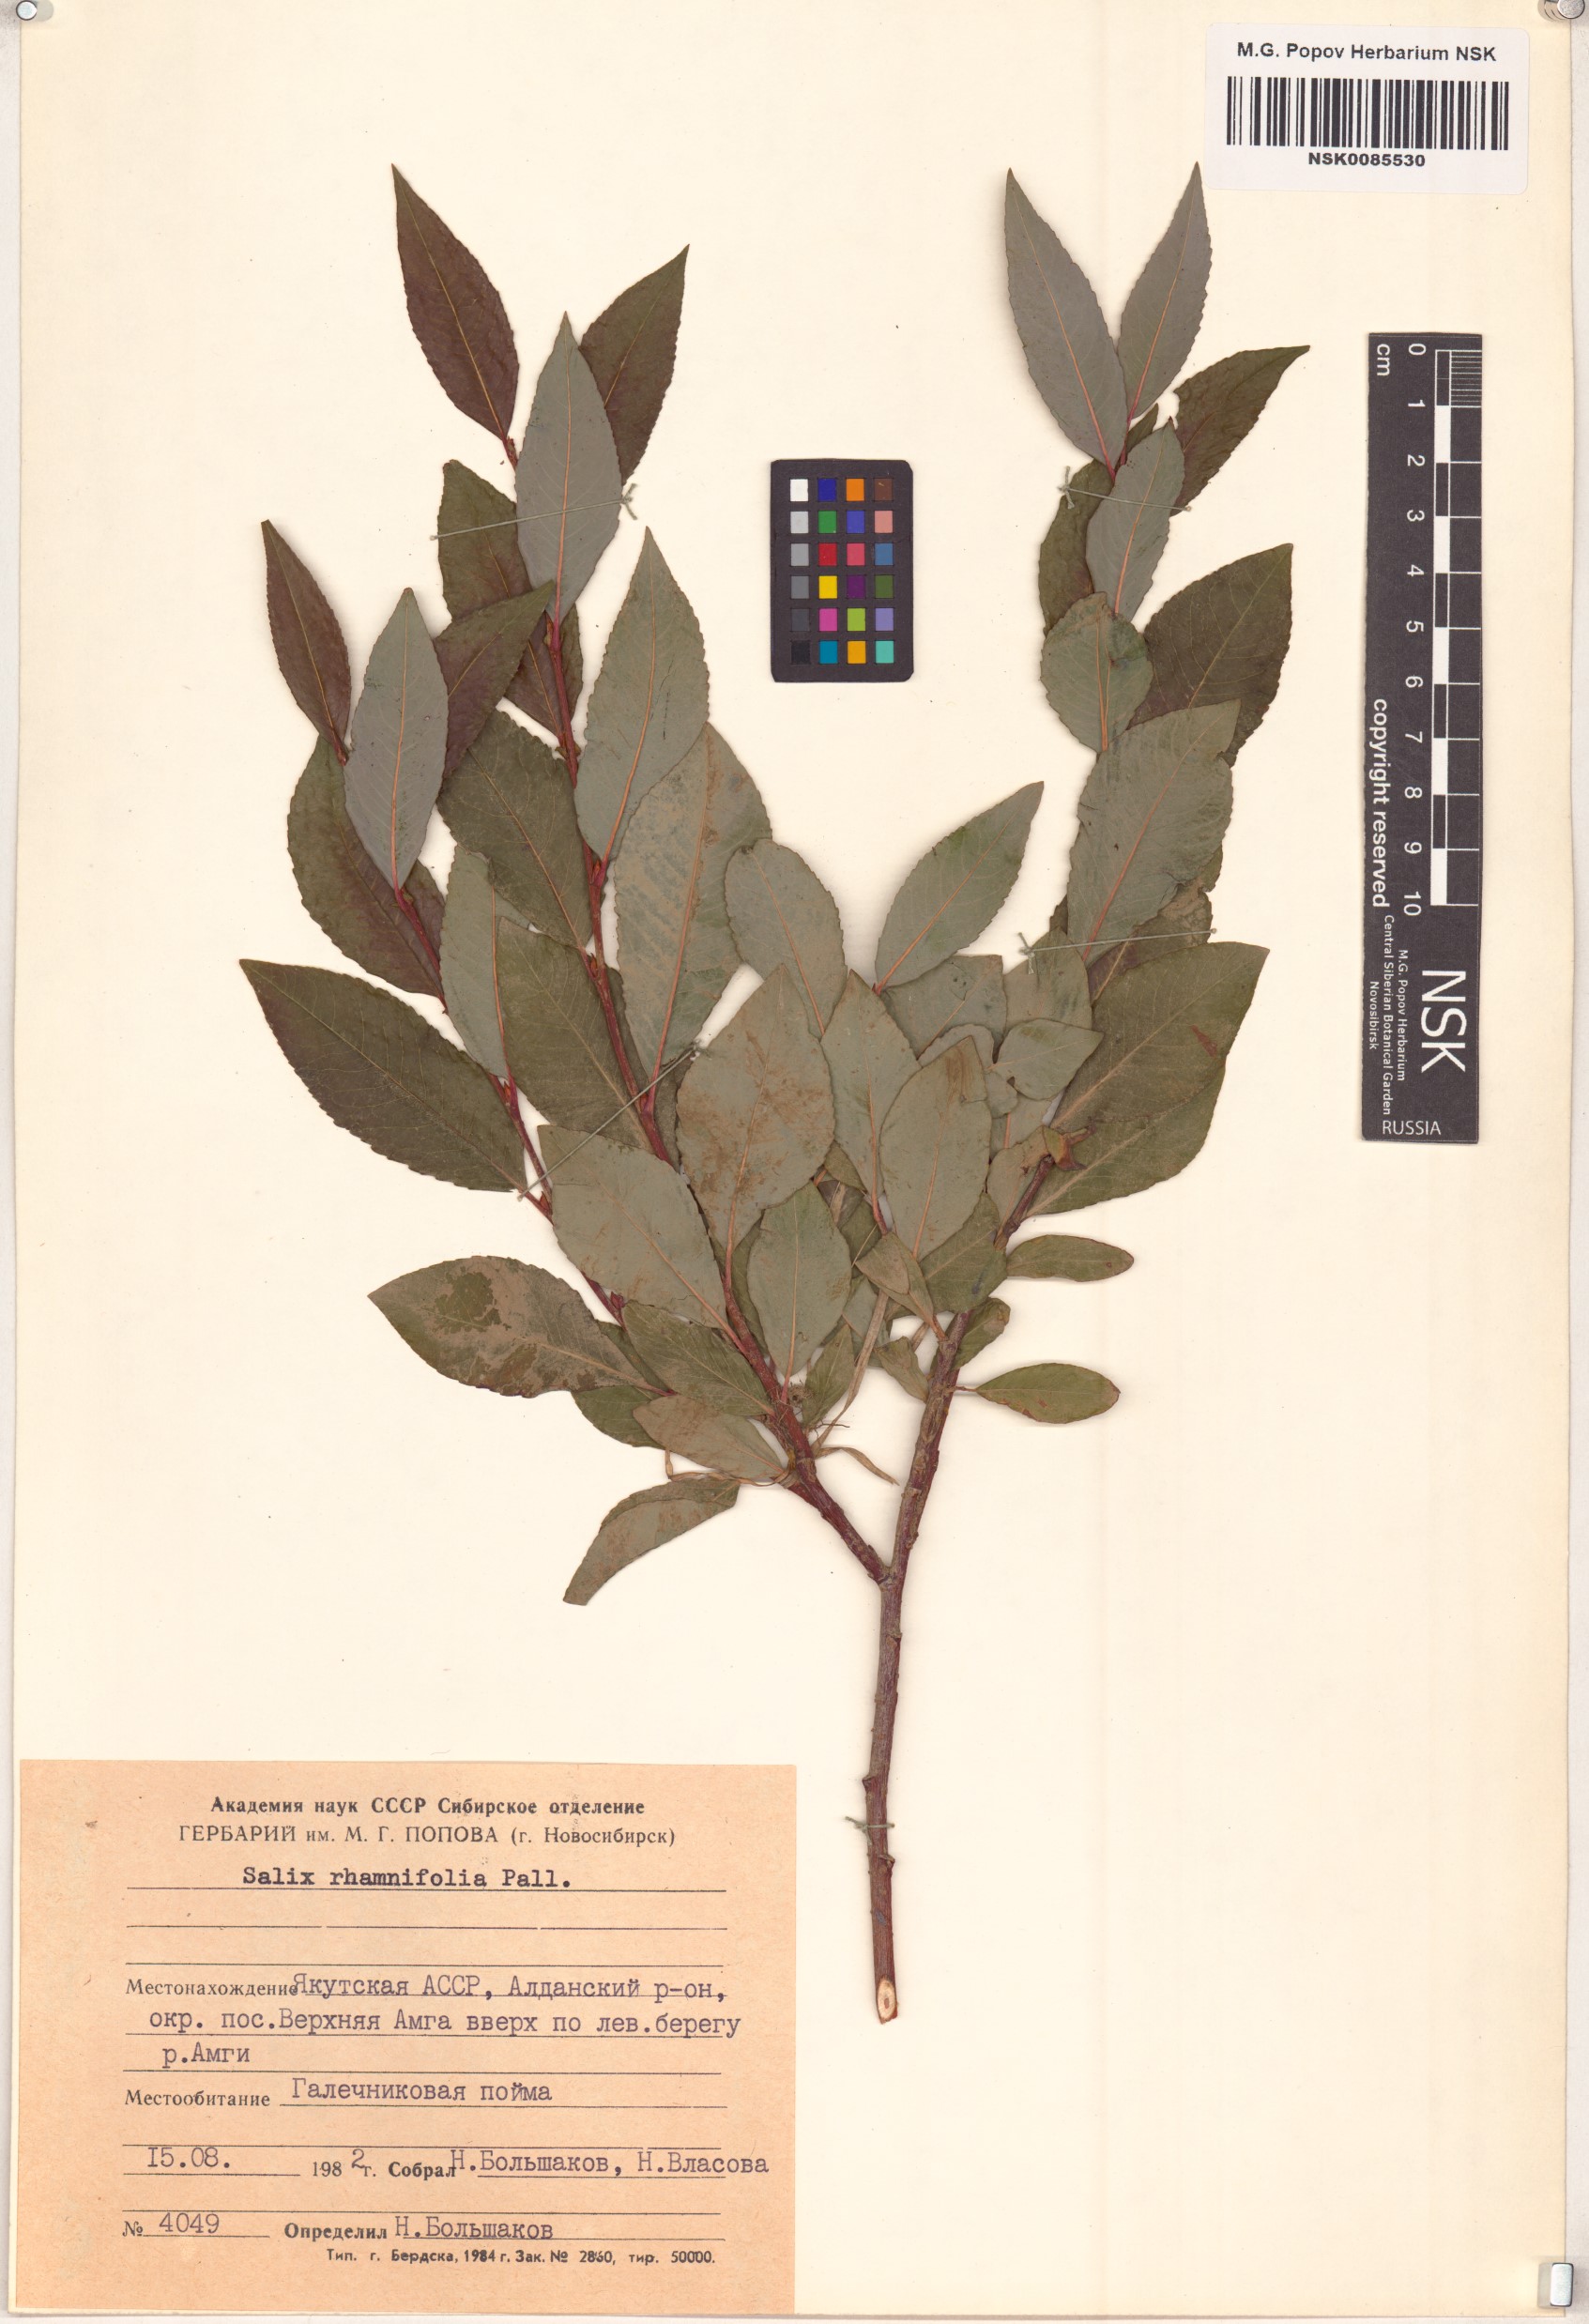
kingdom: Plantae
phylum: Tracheophyta
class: Magnoliopsida
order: Malpighiales
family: Salicaceae
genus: Salix
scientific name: Salix rhamnifolia
